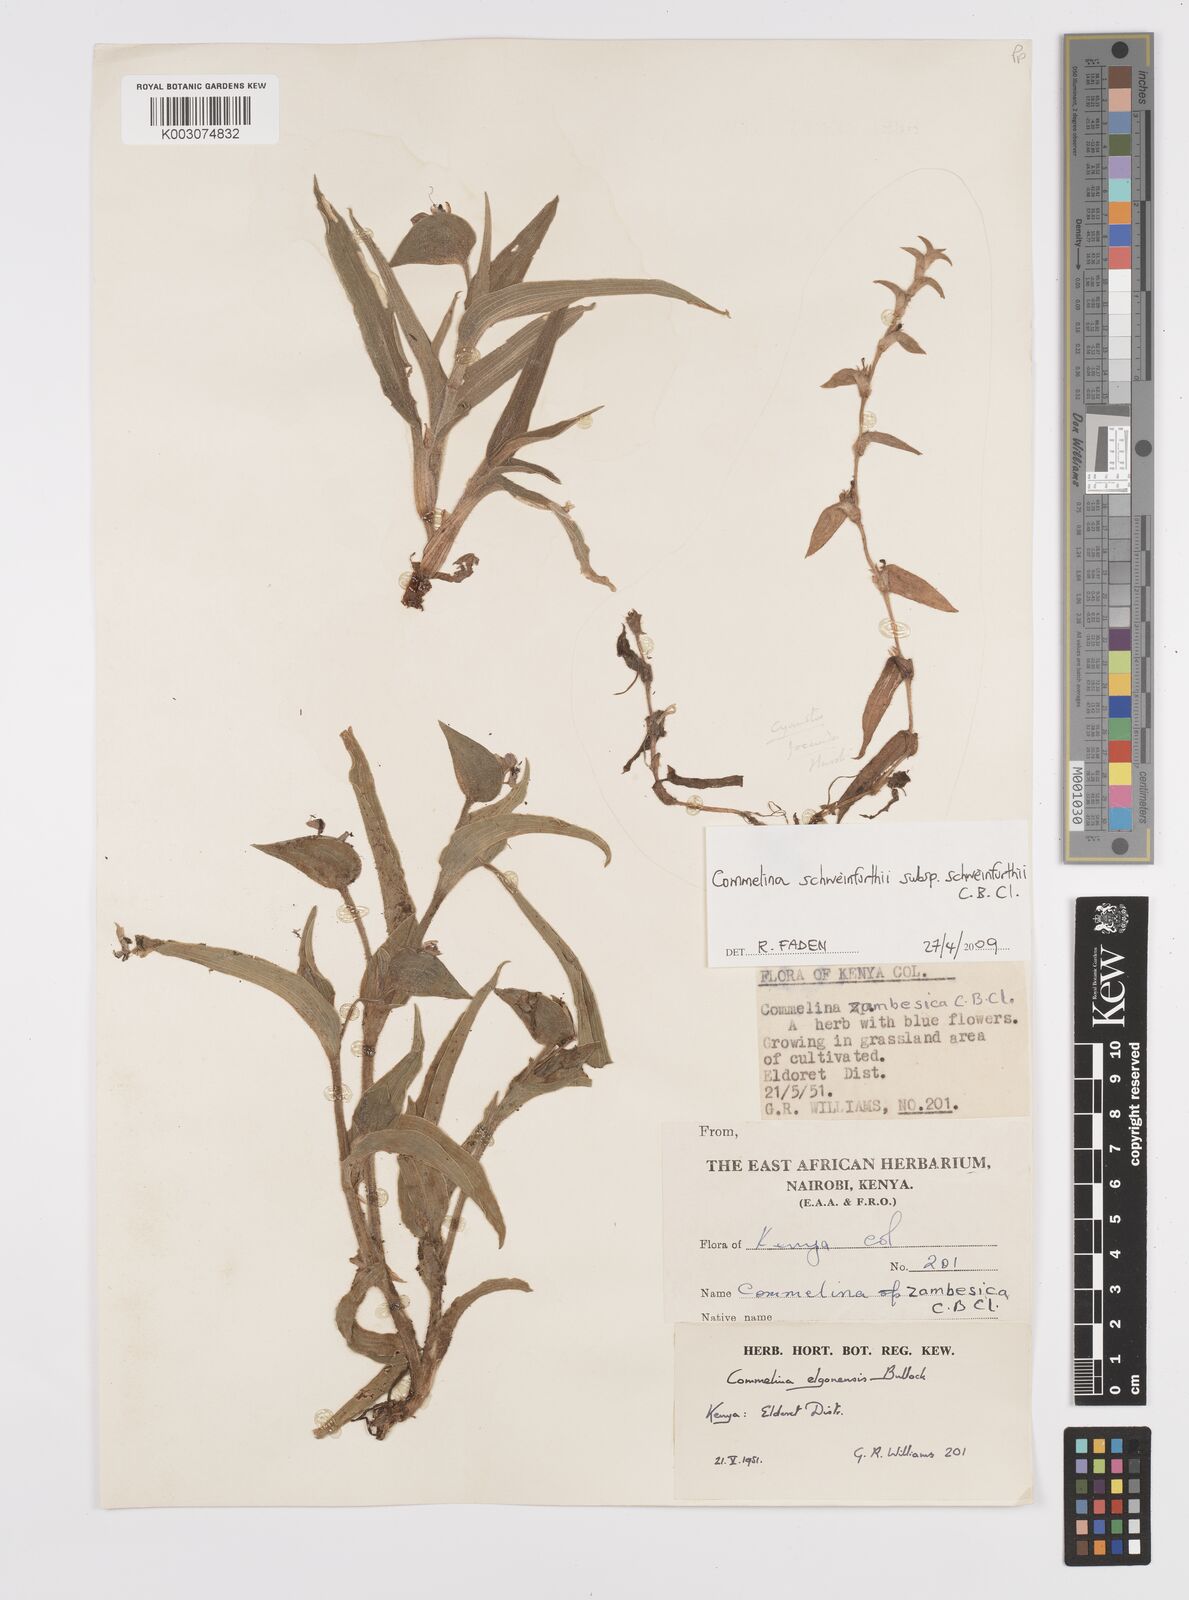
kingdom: Plantae
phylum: Tracheophyta
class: Liliopsida
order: Commelinales
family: Commelinaceae
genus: Commelina
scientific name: Commelina schweinfurthii
